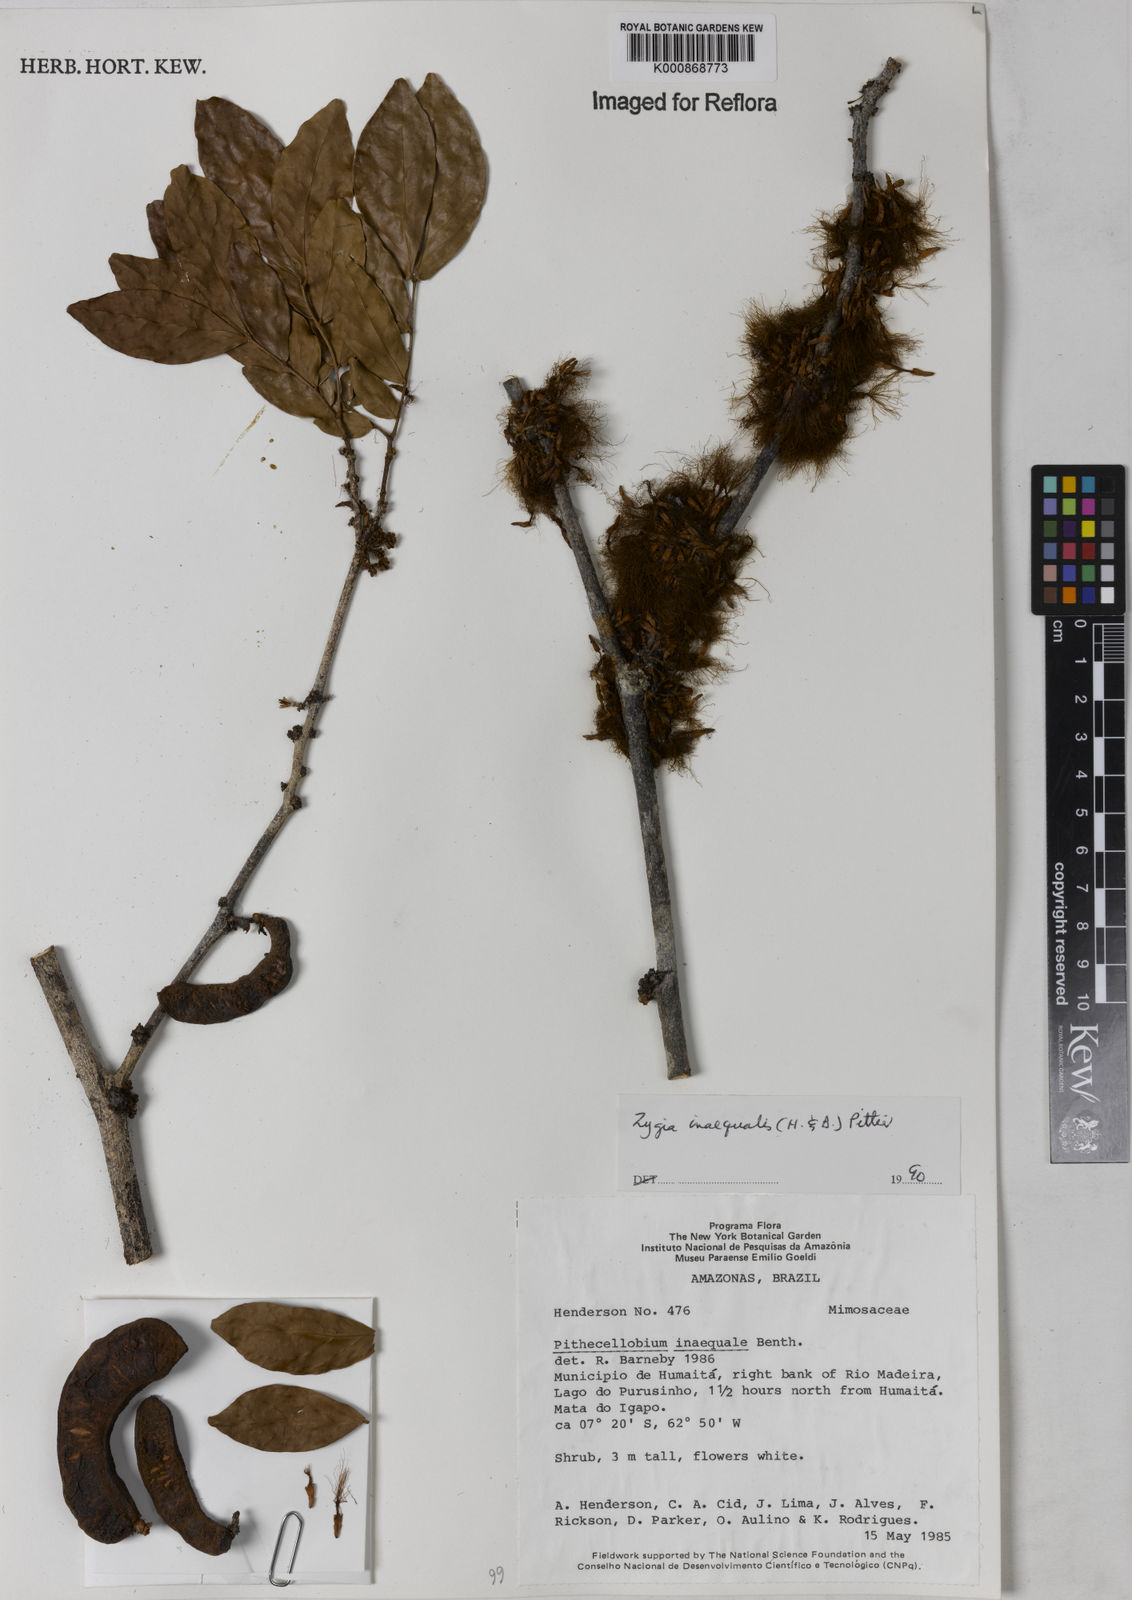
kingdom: Plantae
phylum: Tracheophyta
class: Magnoliopsida
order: Fabales
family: Fabaceae
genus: Zygia
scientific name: Zygia inaequalis
